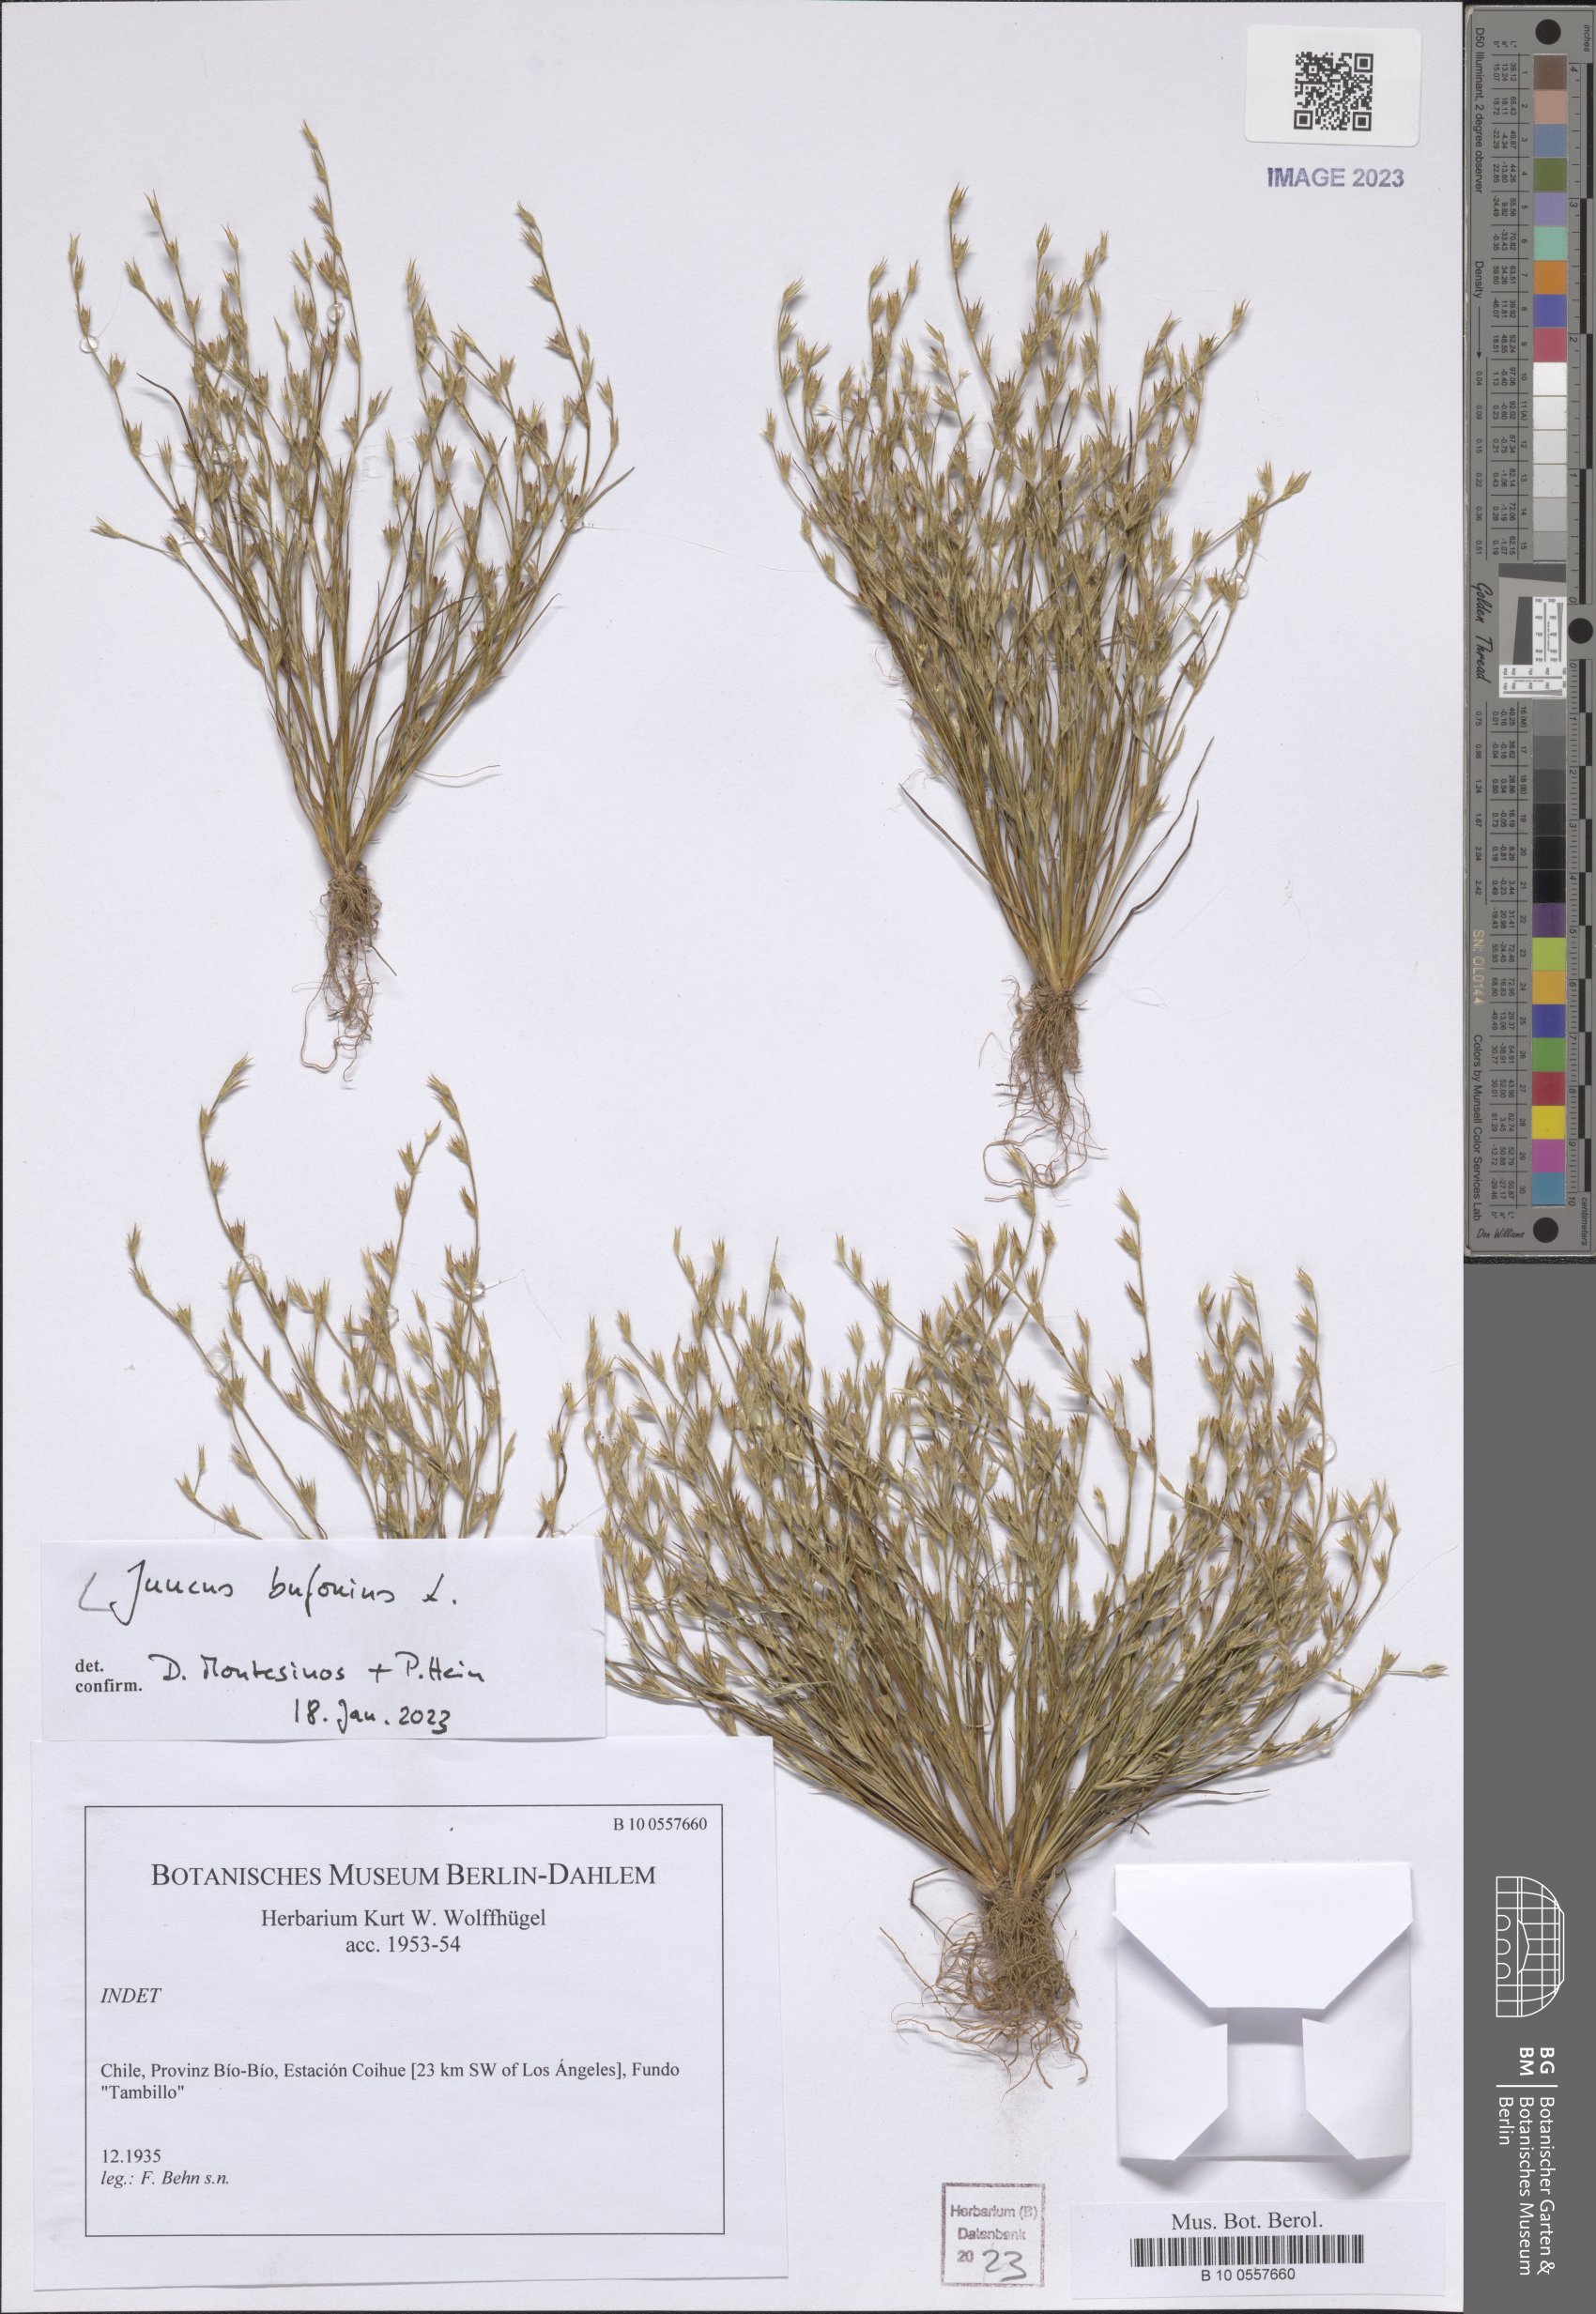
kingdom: Plantae
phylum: Tracheophyta
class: Liliopsida
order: Poales
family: Juncaceae
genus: Juncus
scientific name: Juncus bufonius
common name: Toad rush
